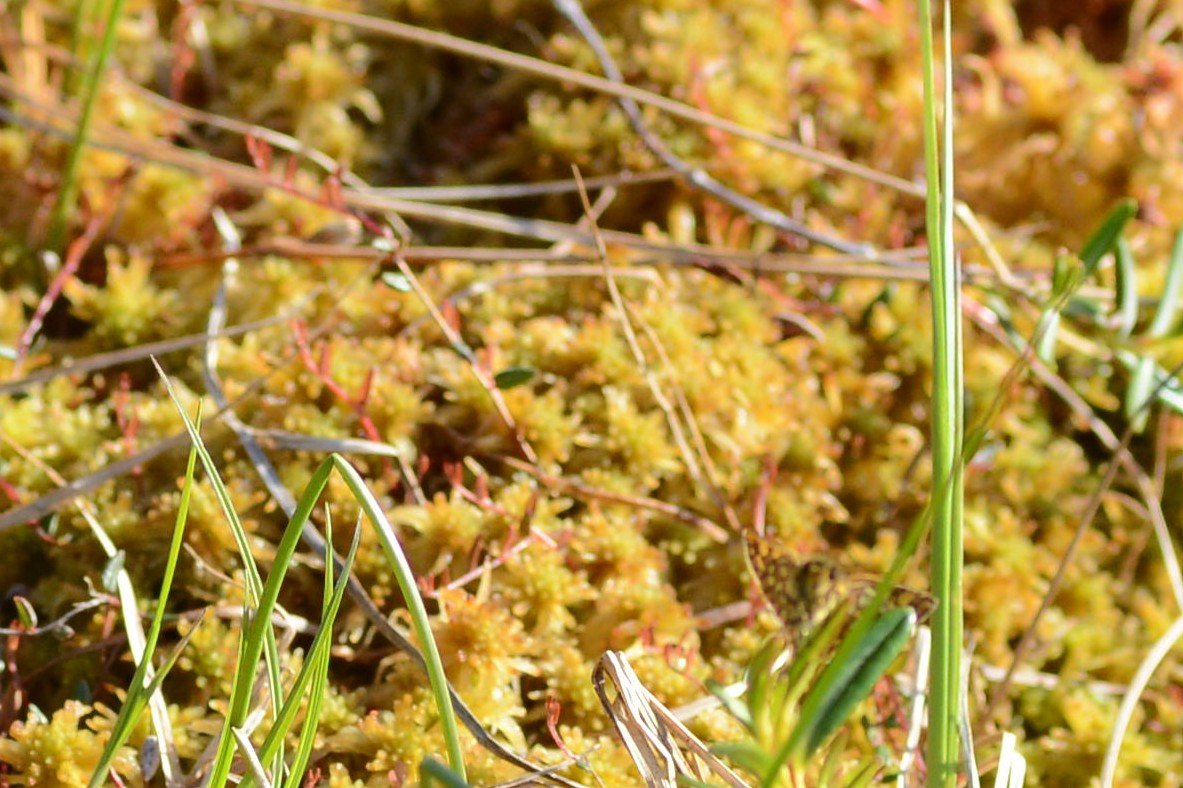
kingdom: Animalia
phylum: Arthropoda
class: Insecta
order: Lepidoptera
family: Hesperiidae
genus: Carterocephalus
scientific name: Carterocephalus palaemon
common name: Chequered Skipper
